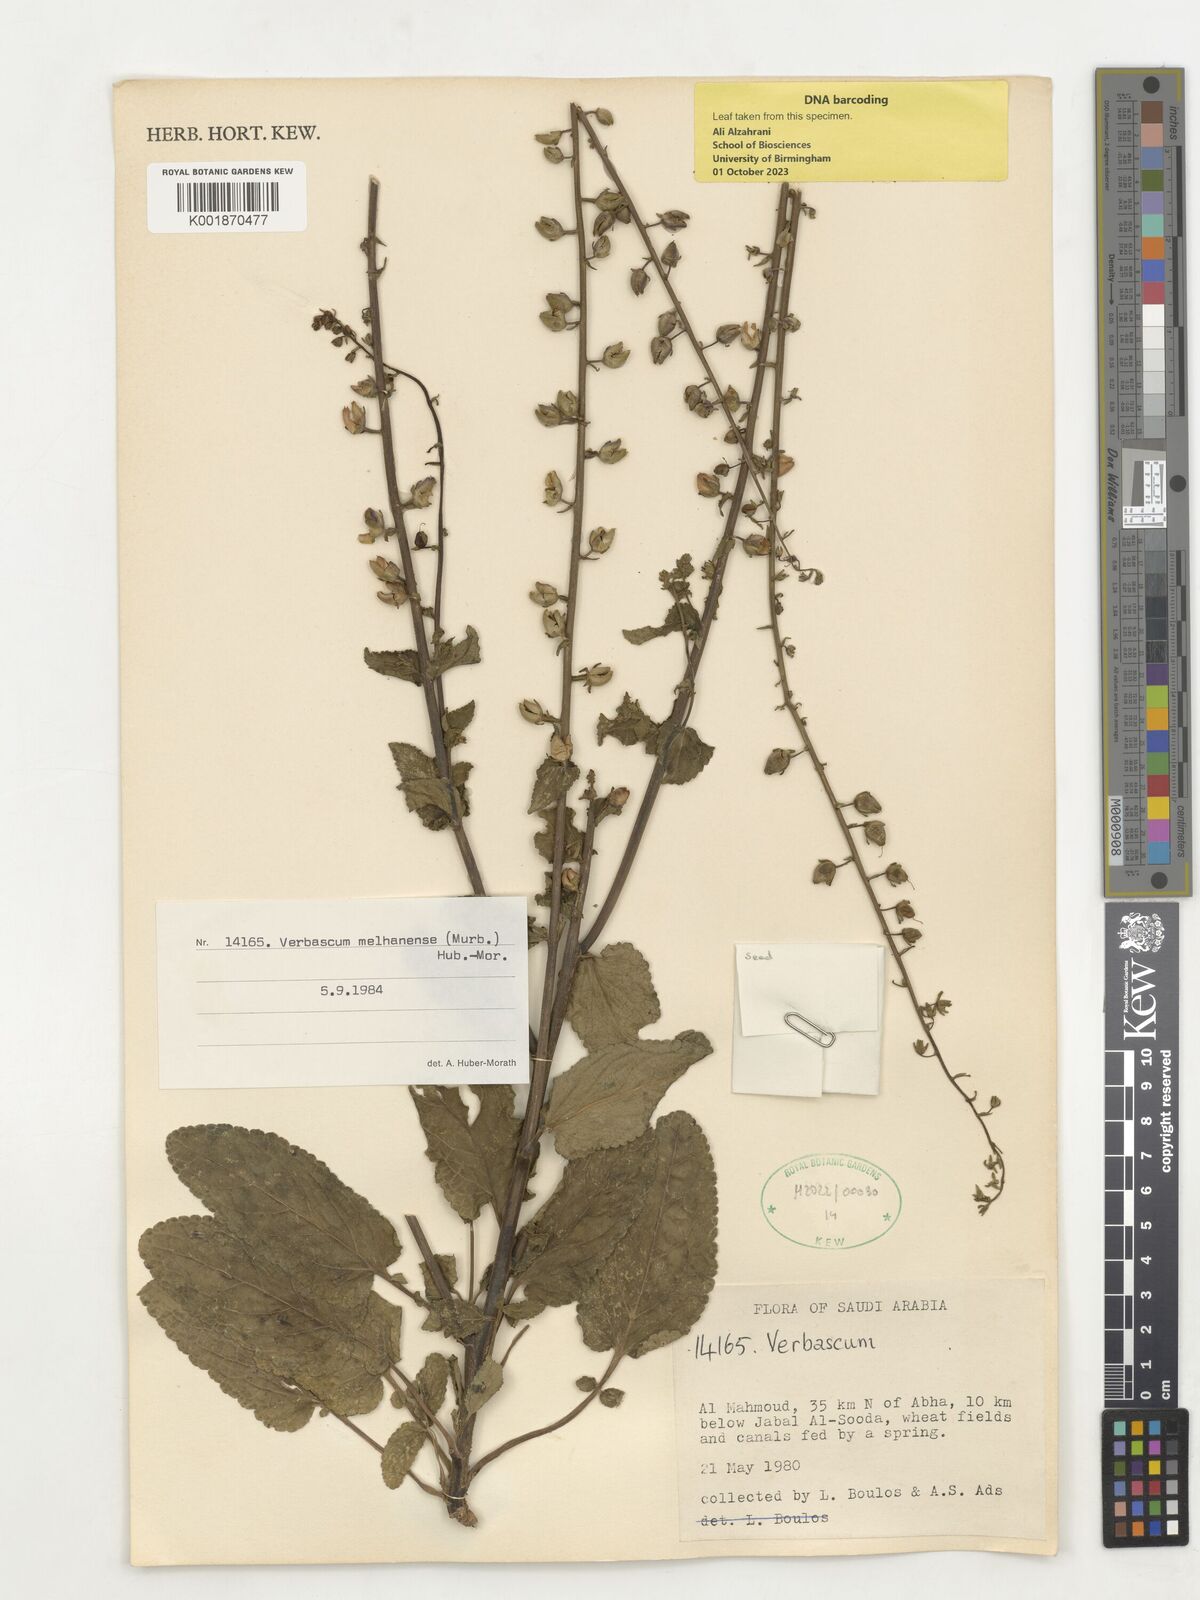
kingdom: Plantae
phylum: Tracheophyta
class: Magnoliopsida
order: Lamiales
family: Scrophulariaceae
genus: Verbascum
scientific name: Verbascum melhanense
